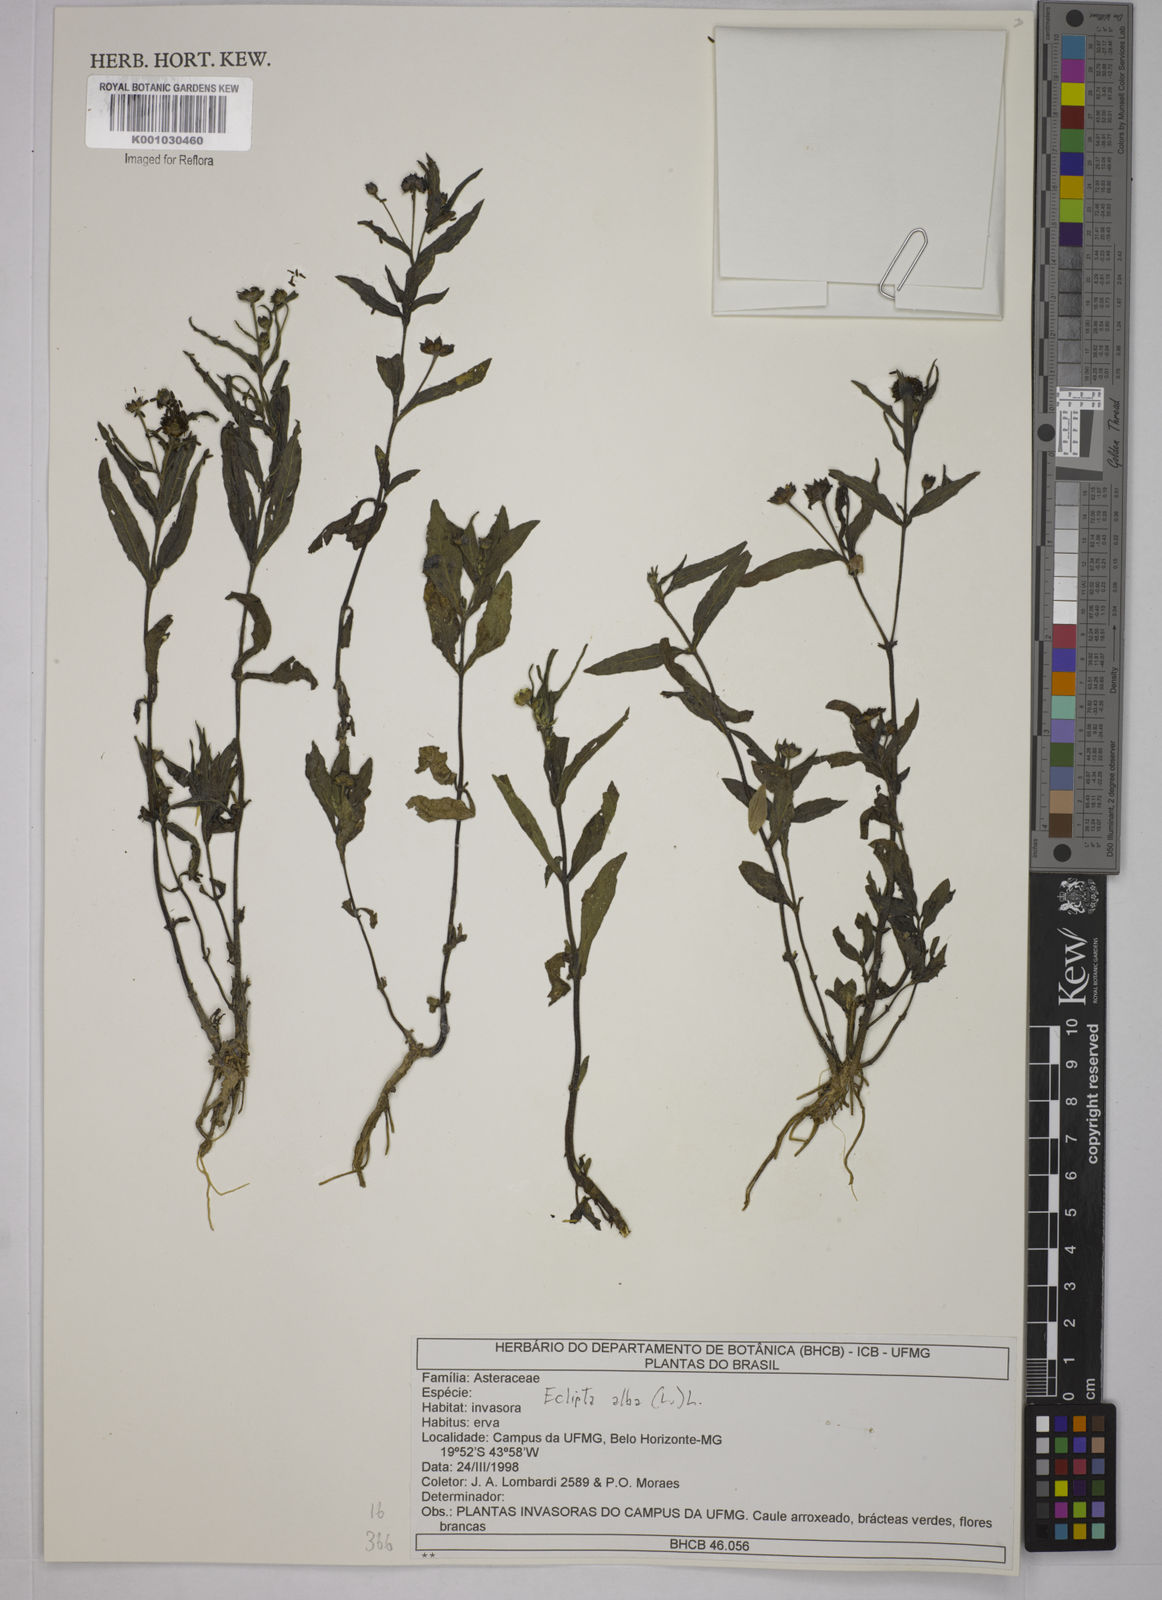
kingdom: Plantae
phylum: Tracheophyta
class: Magnoliopsida
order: Asterales
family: Asteraceae
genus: Eclipta
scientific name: Eclipta prostrata
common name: False daisy
